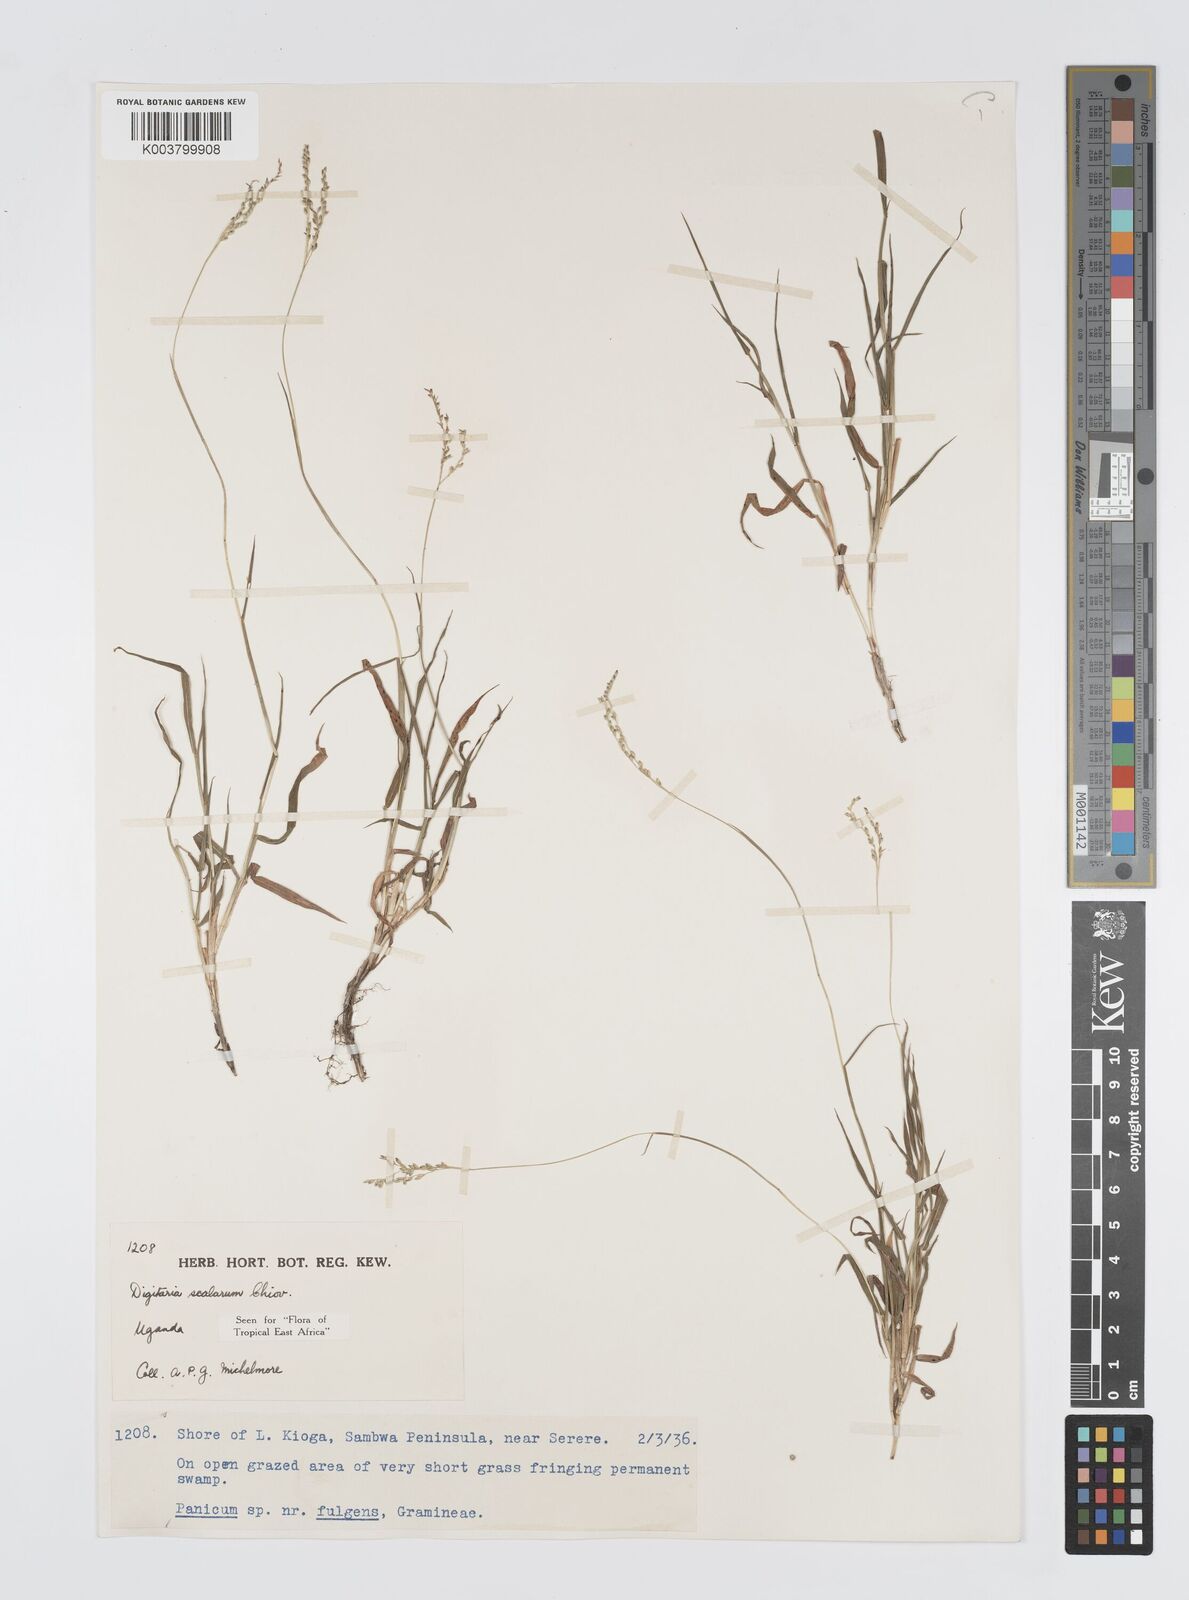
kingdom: Plantae
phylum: Tracheophyta
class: Liliopsida
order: Poales
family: Poaceae
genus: Digitaria
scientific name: Digitaria abyssinica
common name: African couchgrass
